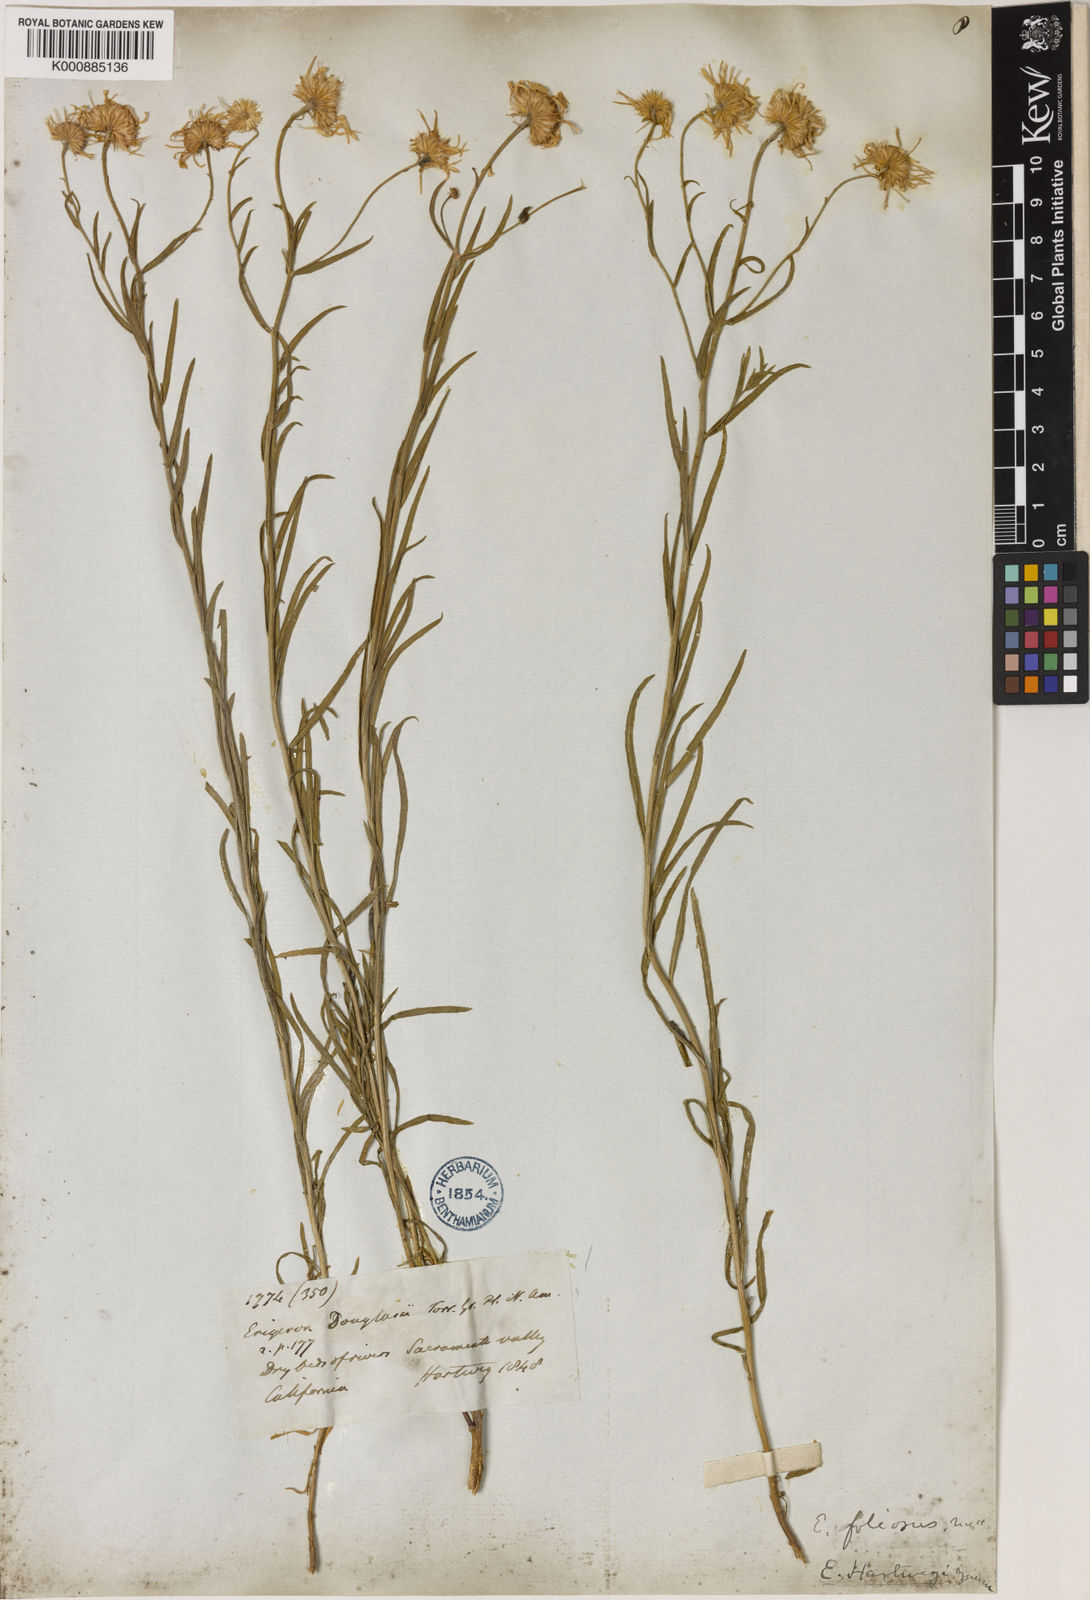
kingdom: Plantae
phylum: Tracheophyta
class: Magnoliopsida
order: Asterales
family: Asteraceae
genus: Erigeron
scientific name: Erigeron foliosus
